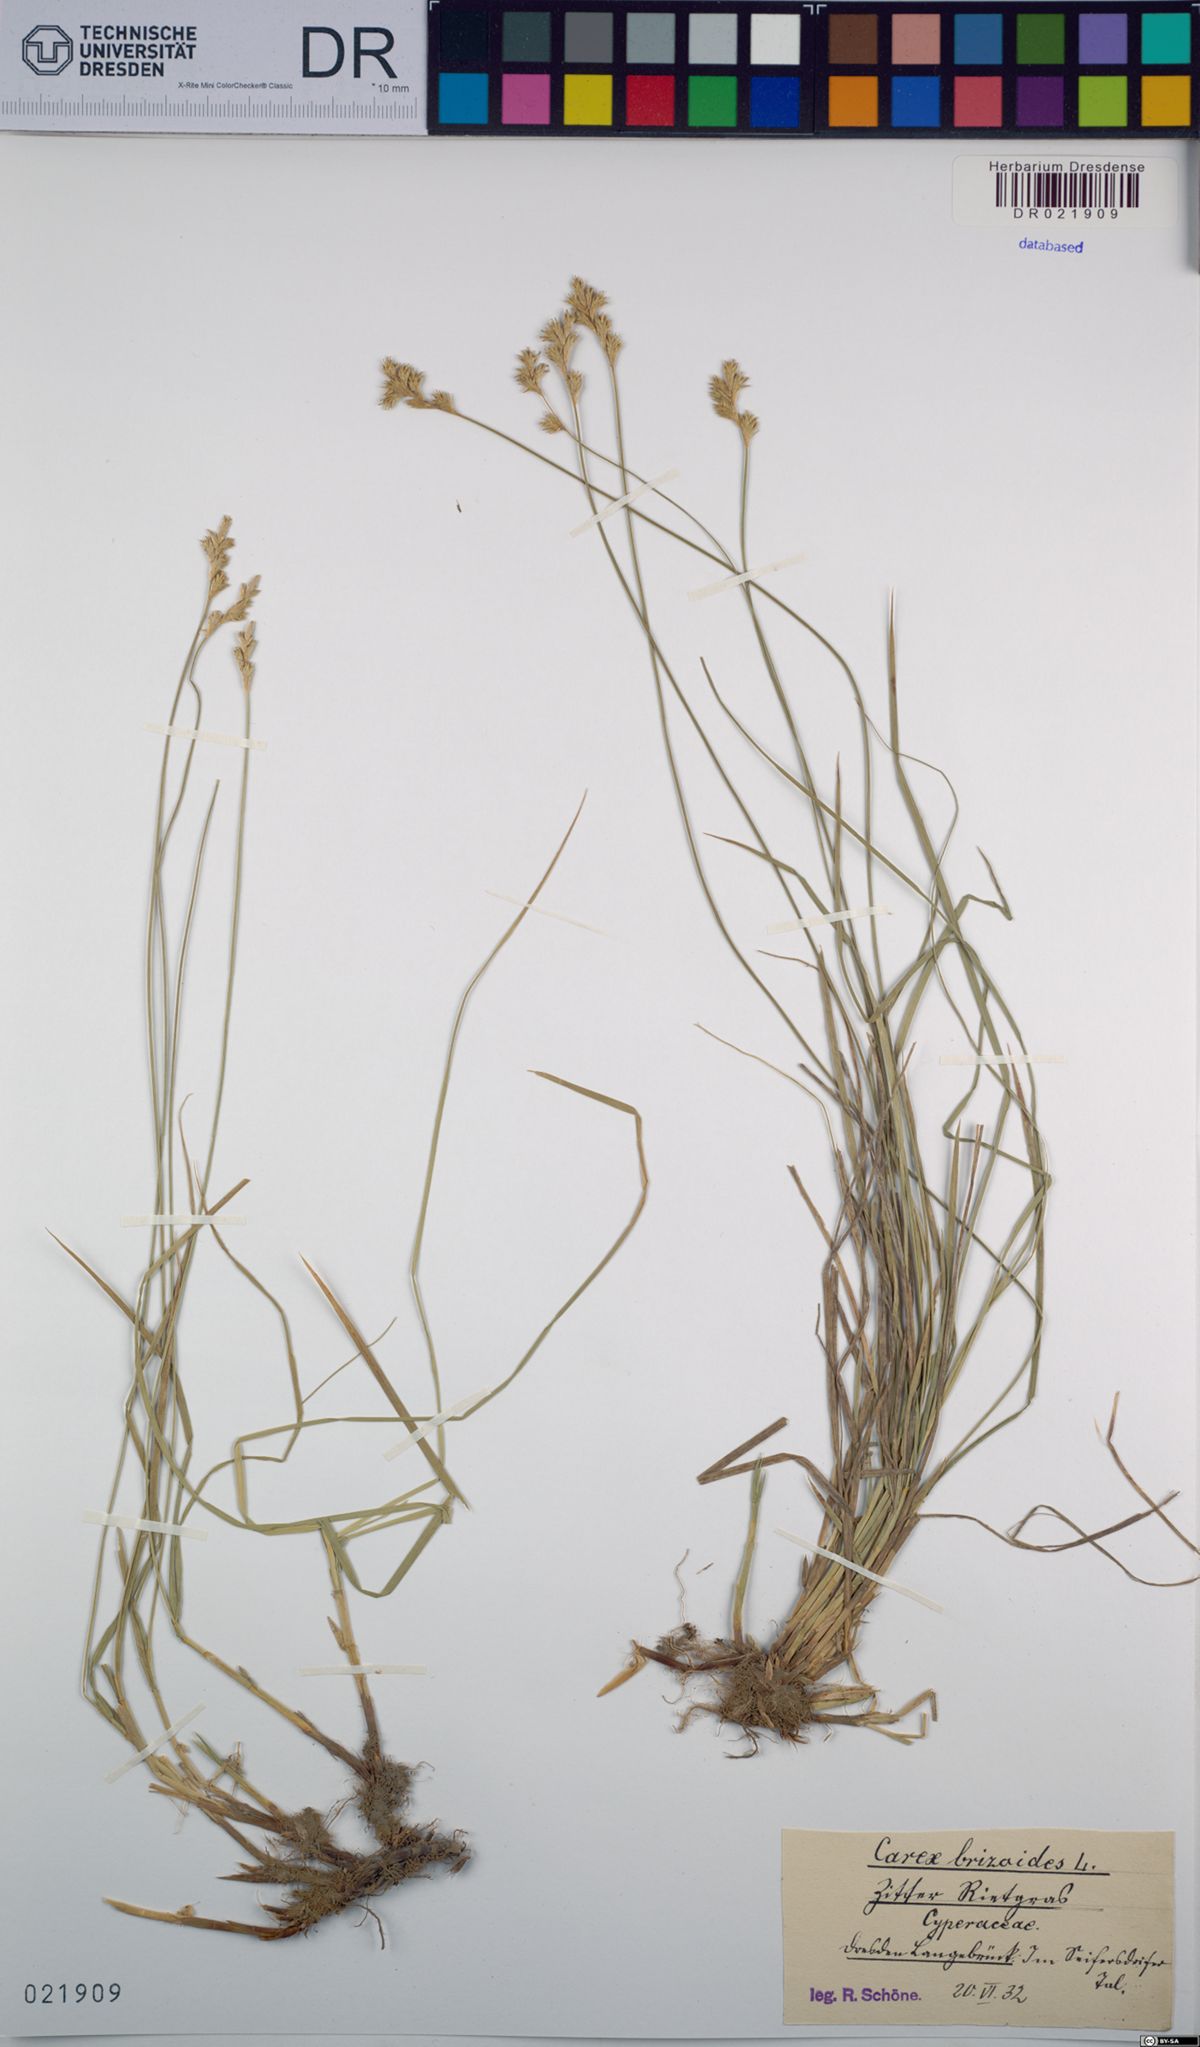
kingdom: Plantae
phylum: Tracheophyta
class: Liliopsida
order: Poales
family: Cyperaceae
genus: Carex
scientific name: Carex brizoides
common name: Quaking-grass sedge
